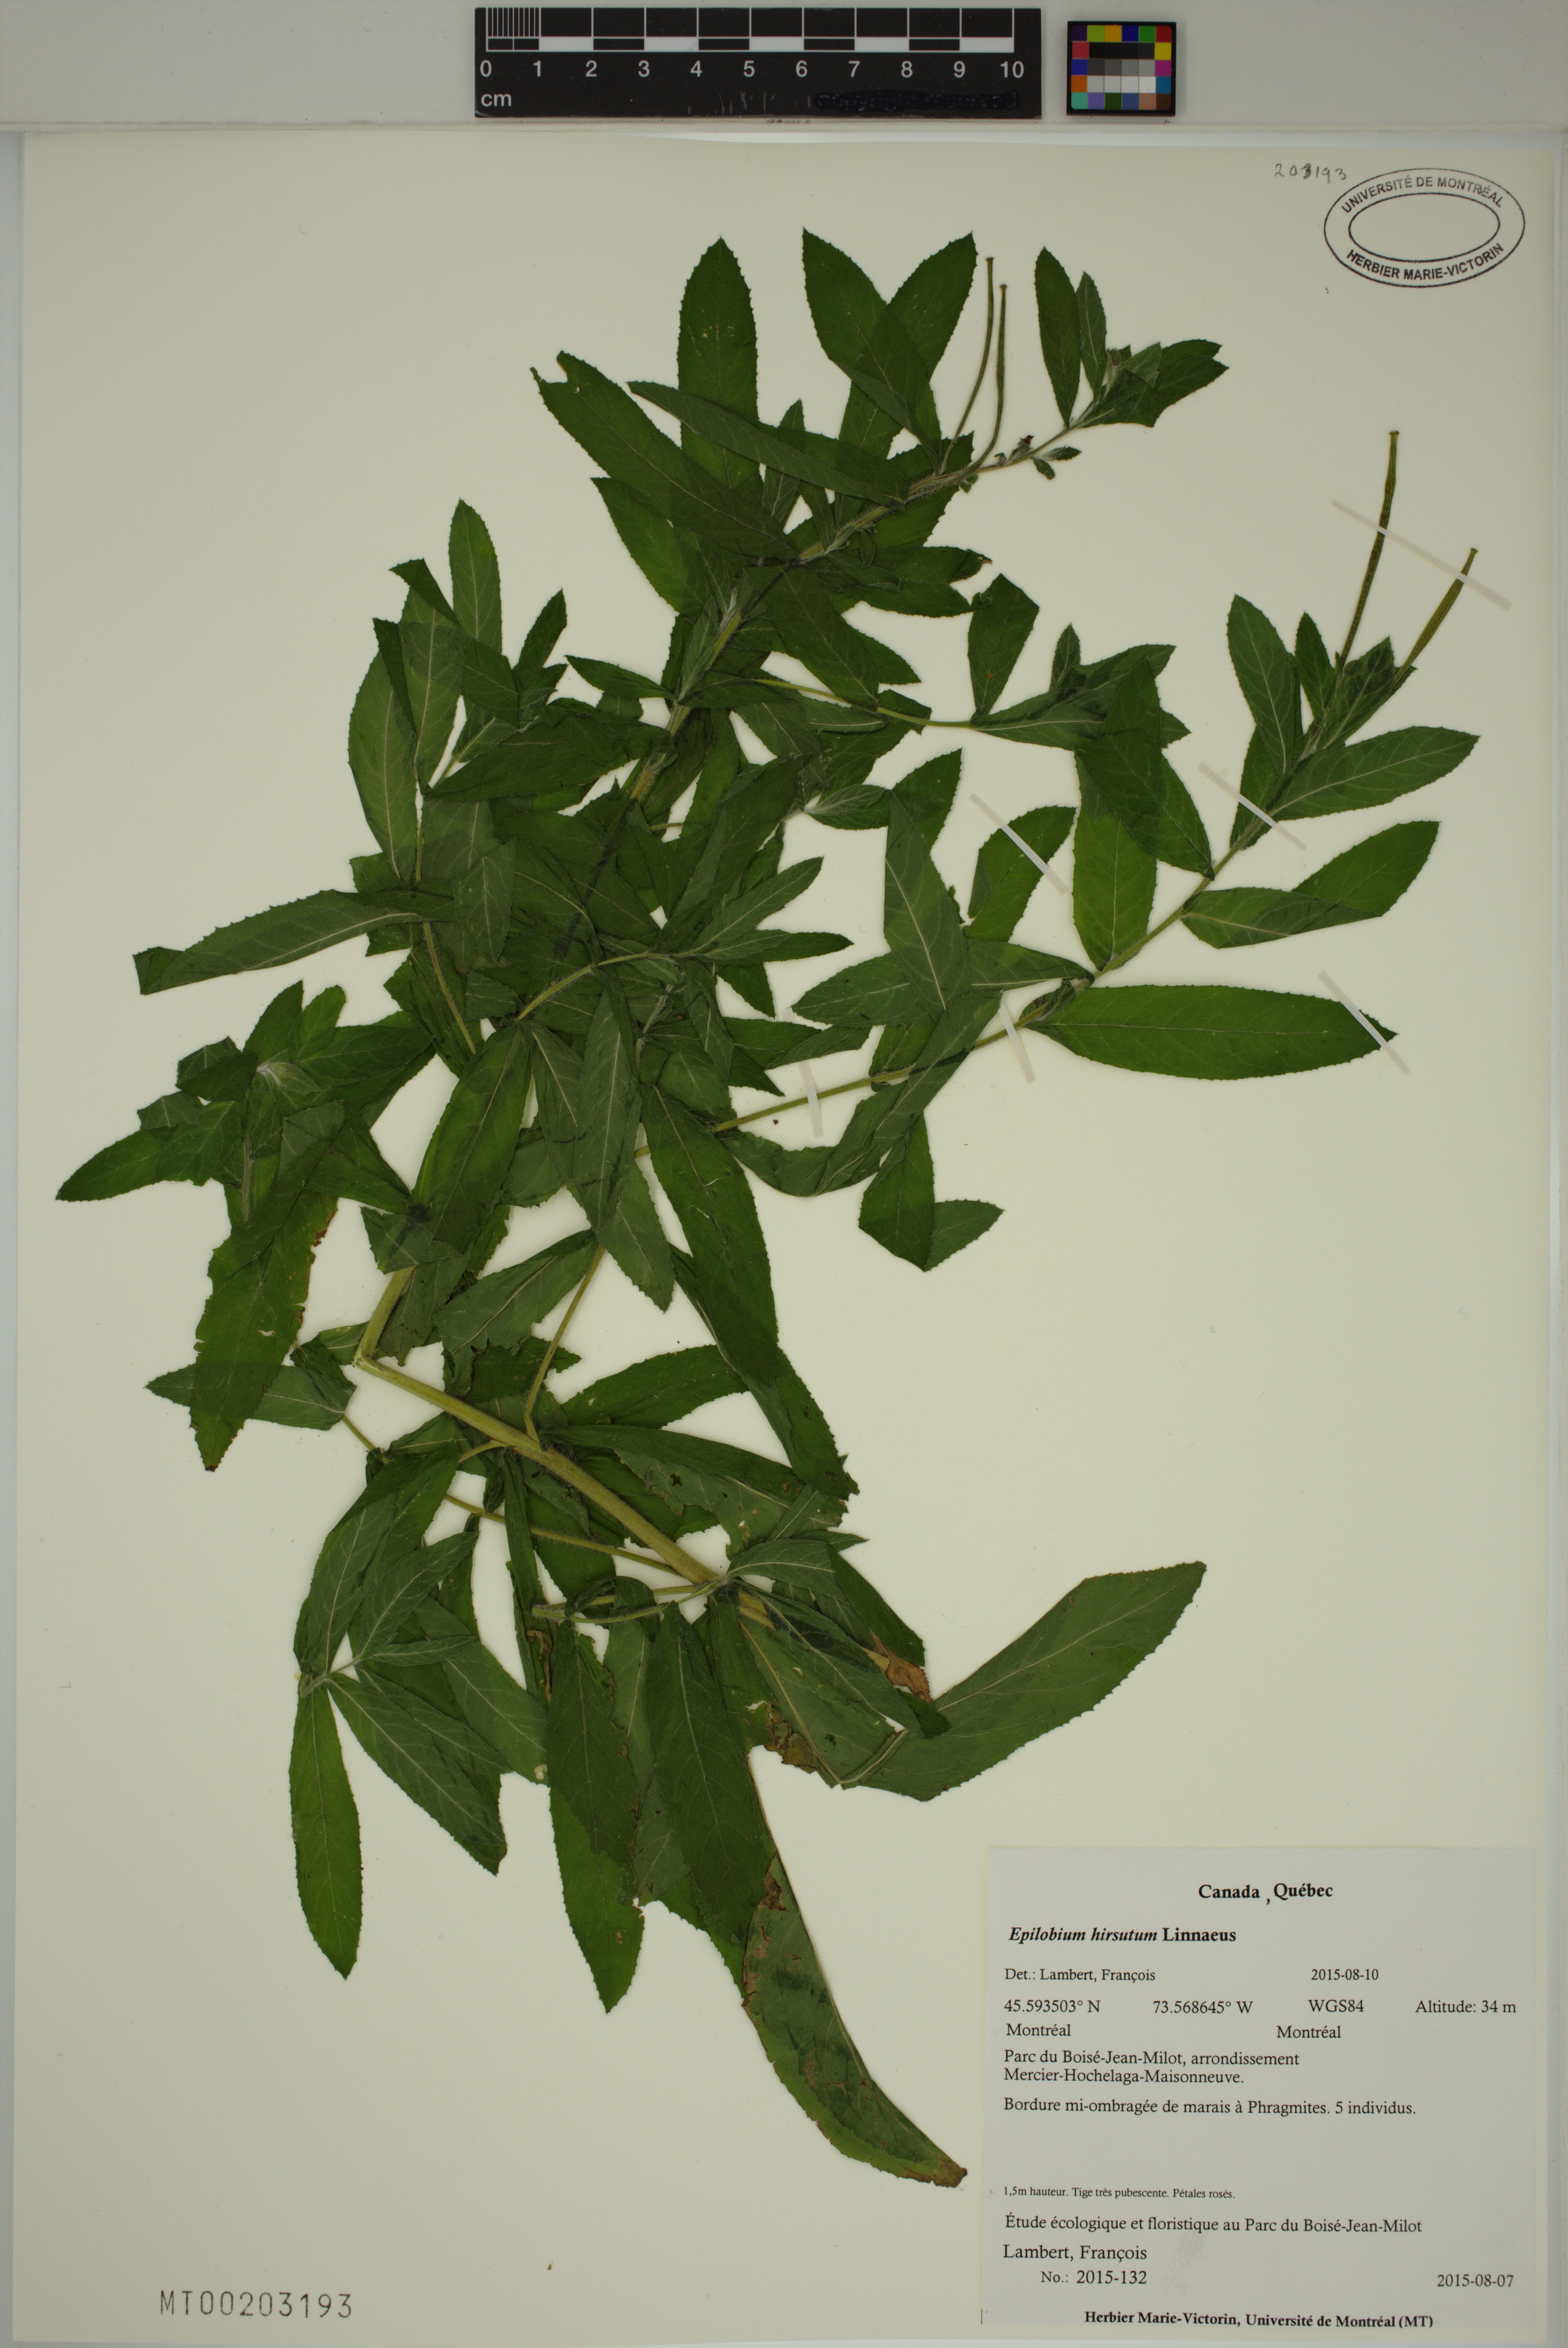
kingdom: Plantae
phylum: Tracheophyta
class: Magnoliopsida
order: Myrtales
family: Onagraceae
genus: Epilobium
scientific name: Epilobium hirsutum
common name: Great willowherb
